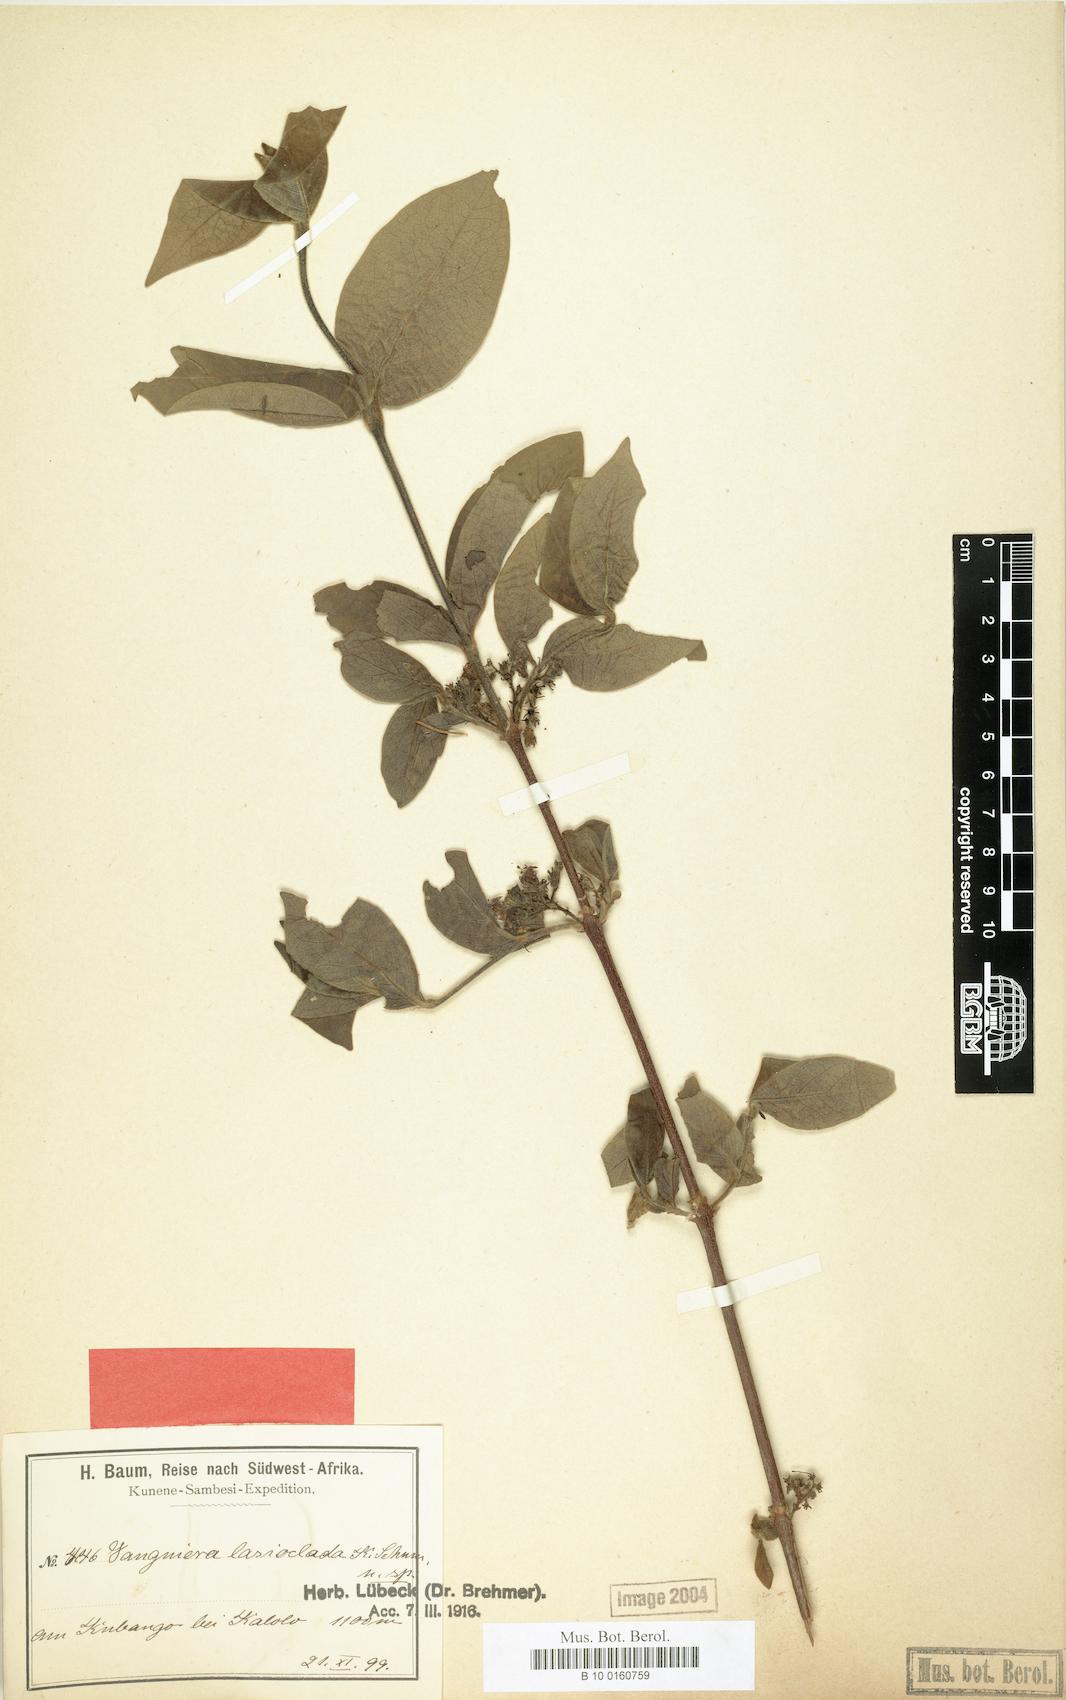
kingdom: Plantae
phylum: Tracheophyta
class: Magnoliopsida
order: Gentianales
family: Rubiaceae
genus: Vangueria
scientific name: Vangueria proschii
